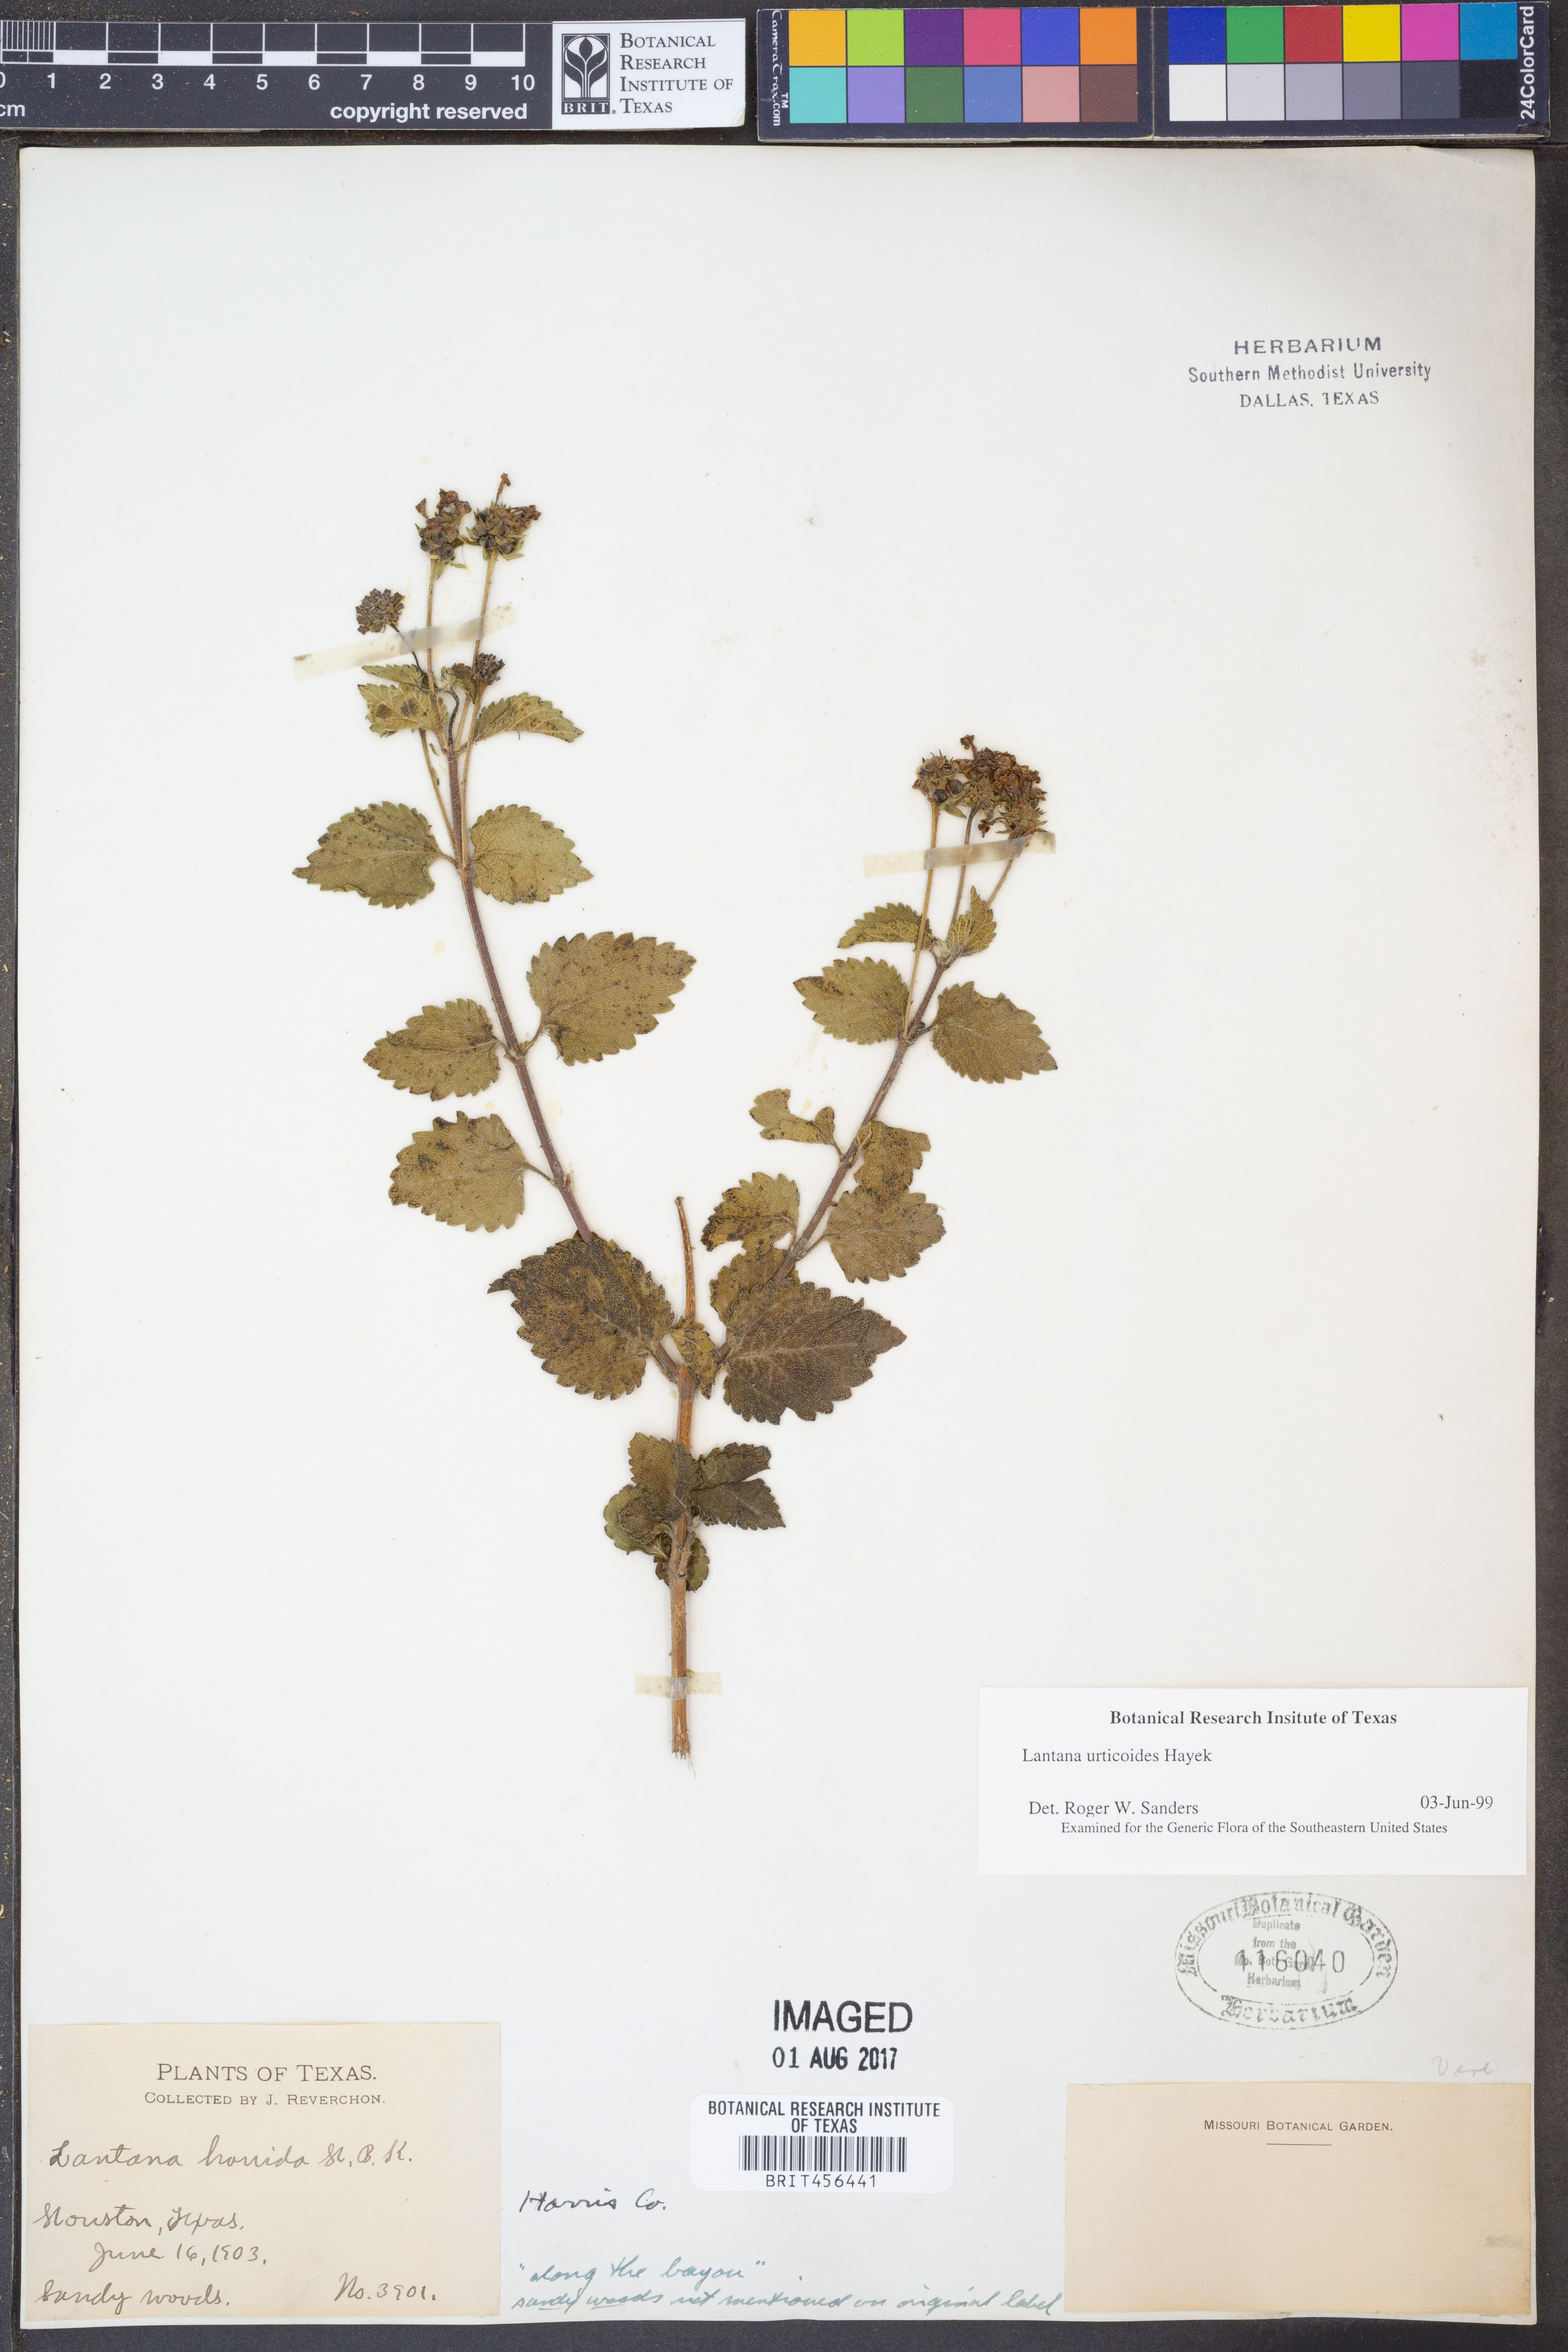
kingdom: Plantae
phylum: Tracheophyta
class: Magnoliopsida
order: Lamiales
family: Verbenaceae
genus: Lantana
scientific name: Lantana urticoides
